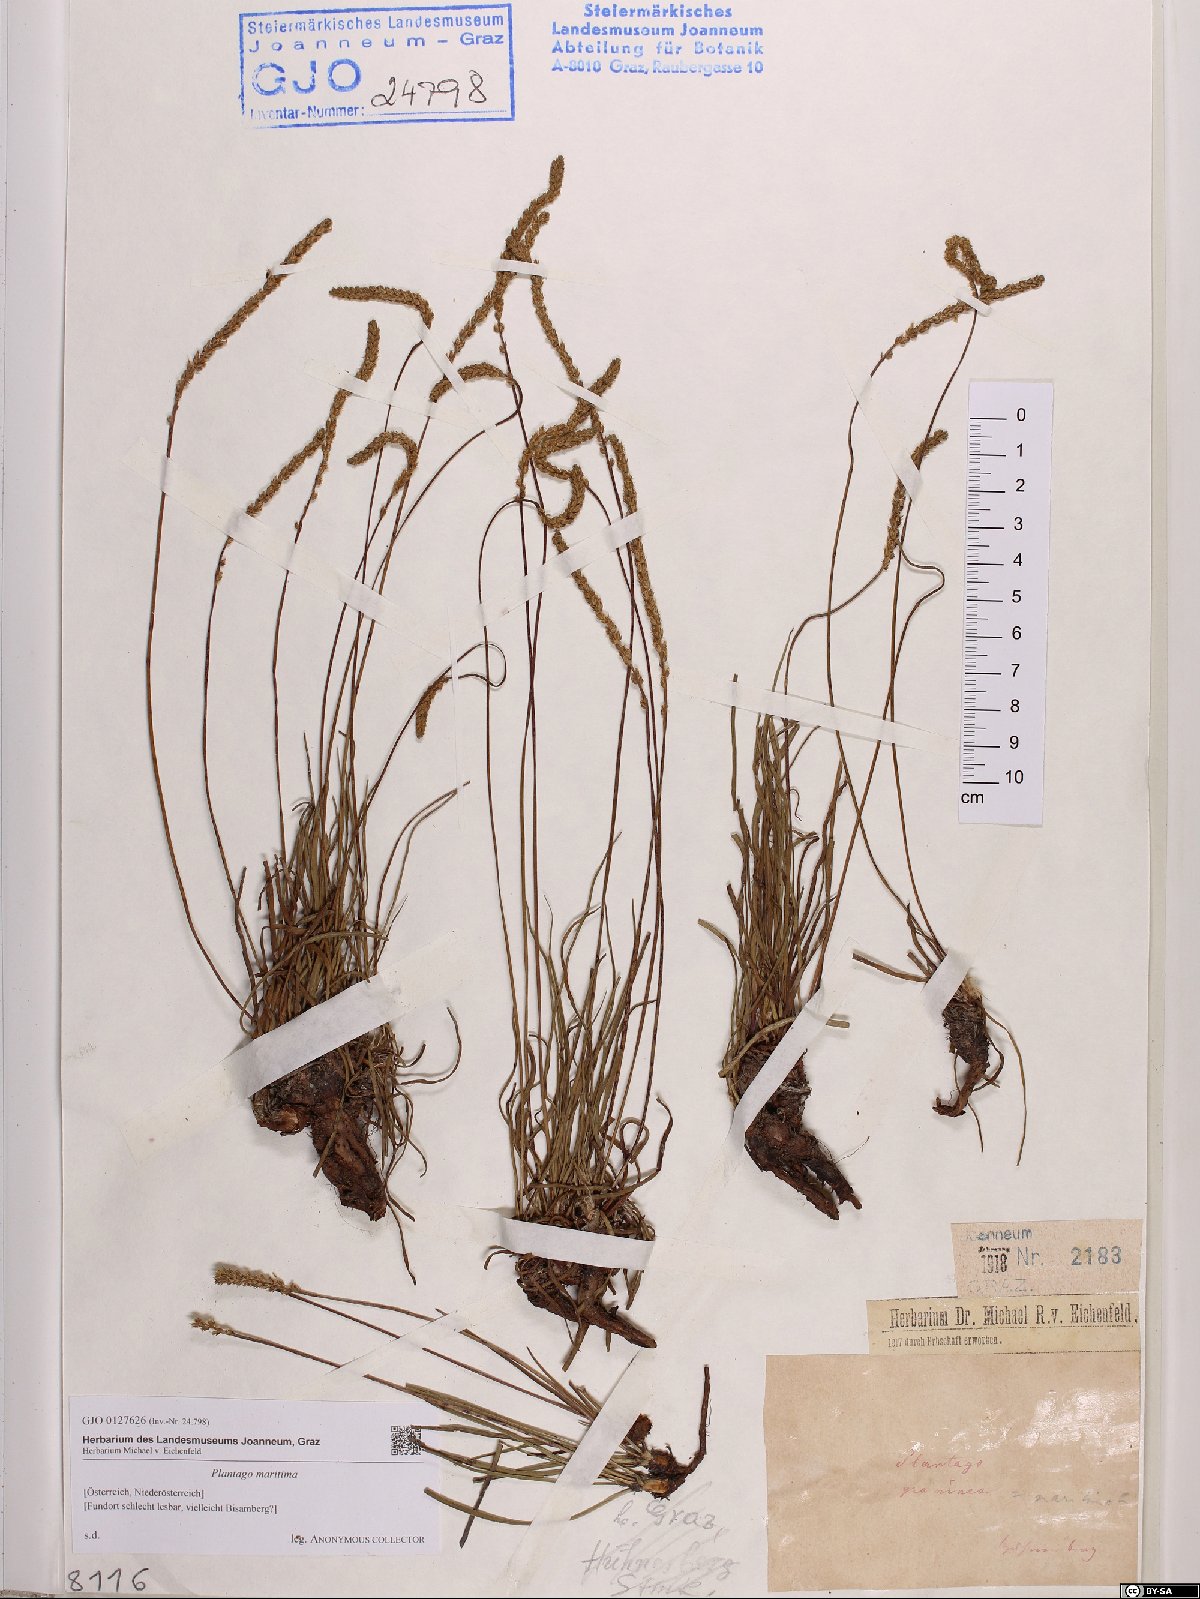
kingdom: Plantae
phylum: Tracheophyta
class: Magnoliopsida
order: Lamiales
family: Plantaginaceae
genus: Plantago
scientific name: Plantago maritima
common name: Sea plantain
